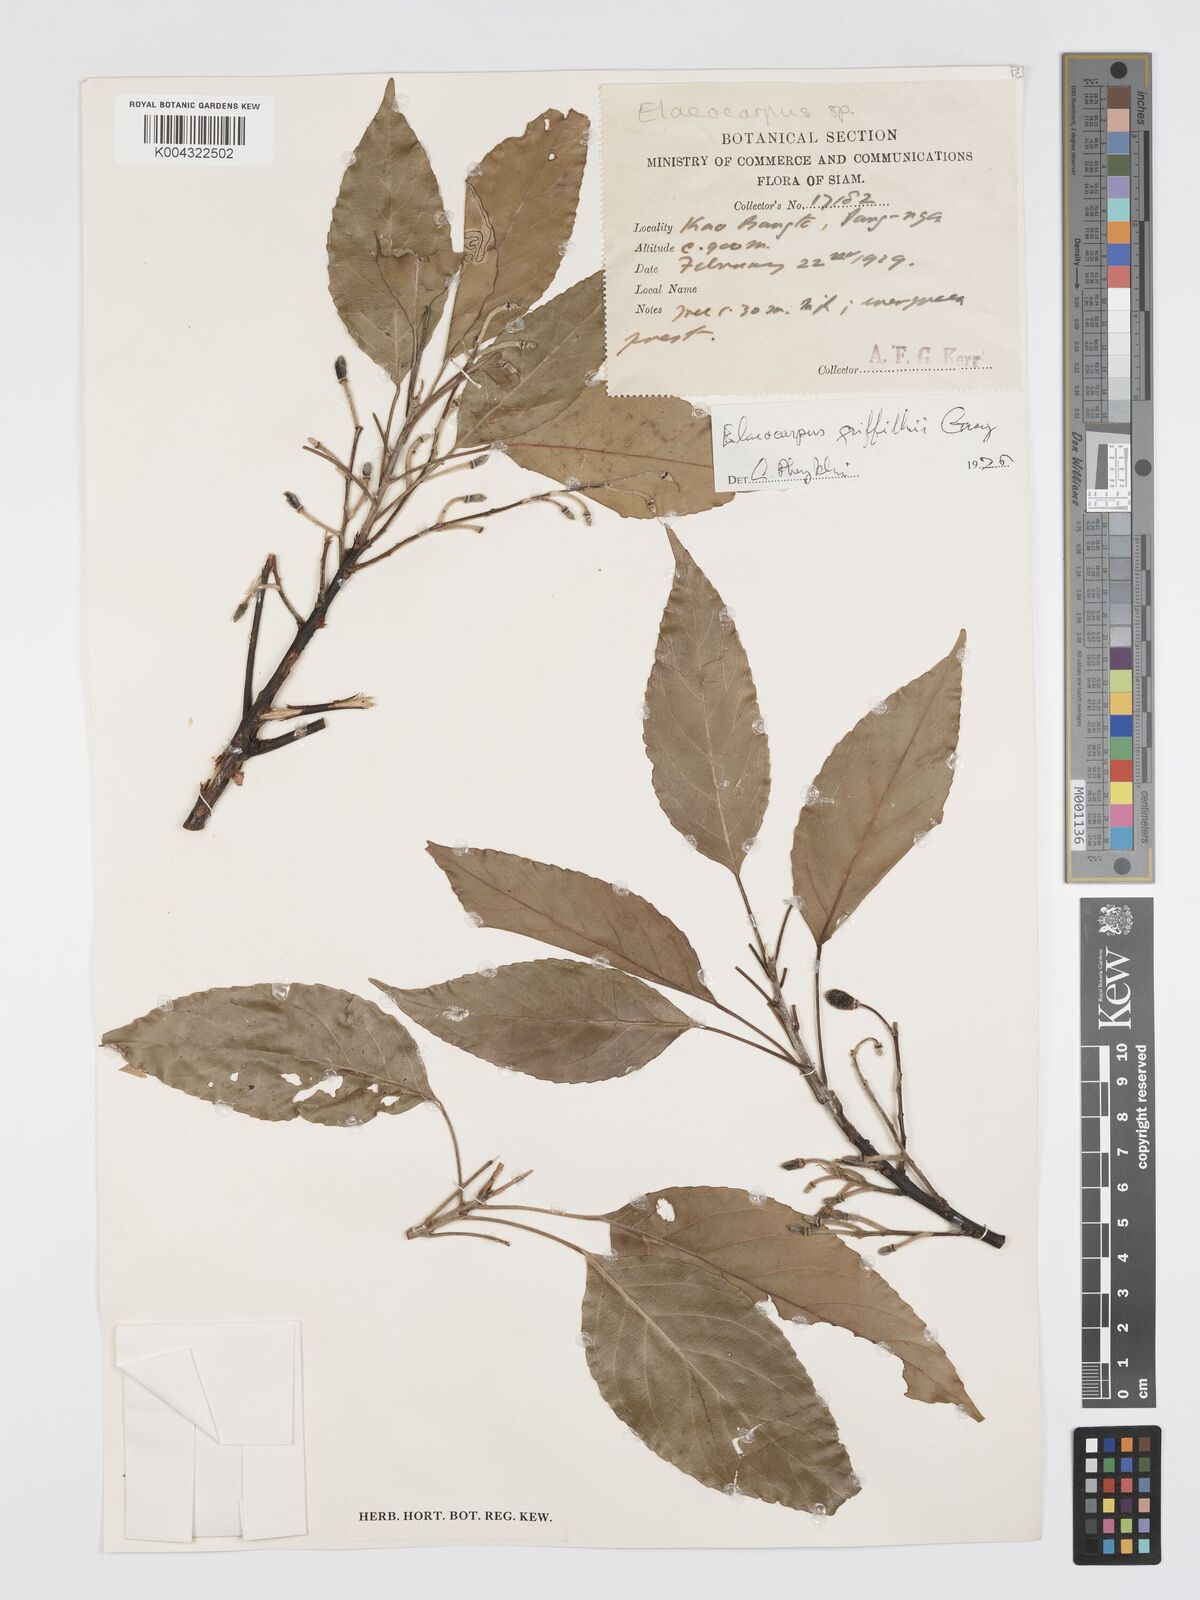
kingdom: Plantae
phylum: Tracheophyta
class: Magnoliopsida
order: Oxalidales
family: Elaeocarpaceae
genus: Elaeocarpus
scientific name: Elaeocarpus griffithii
